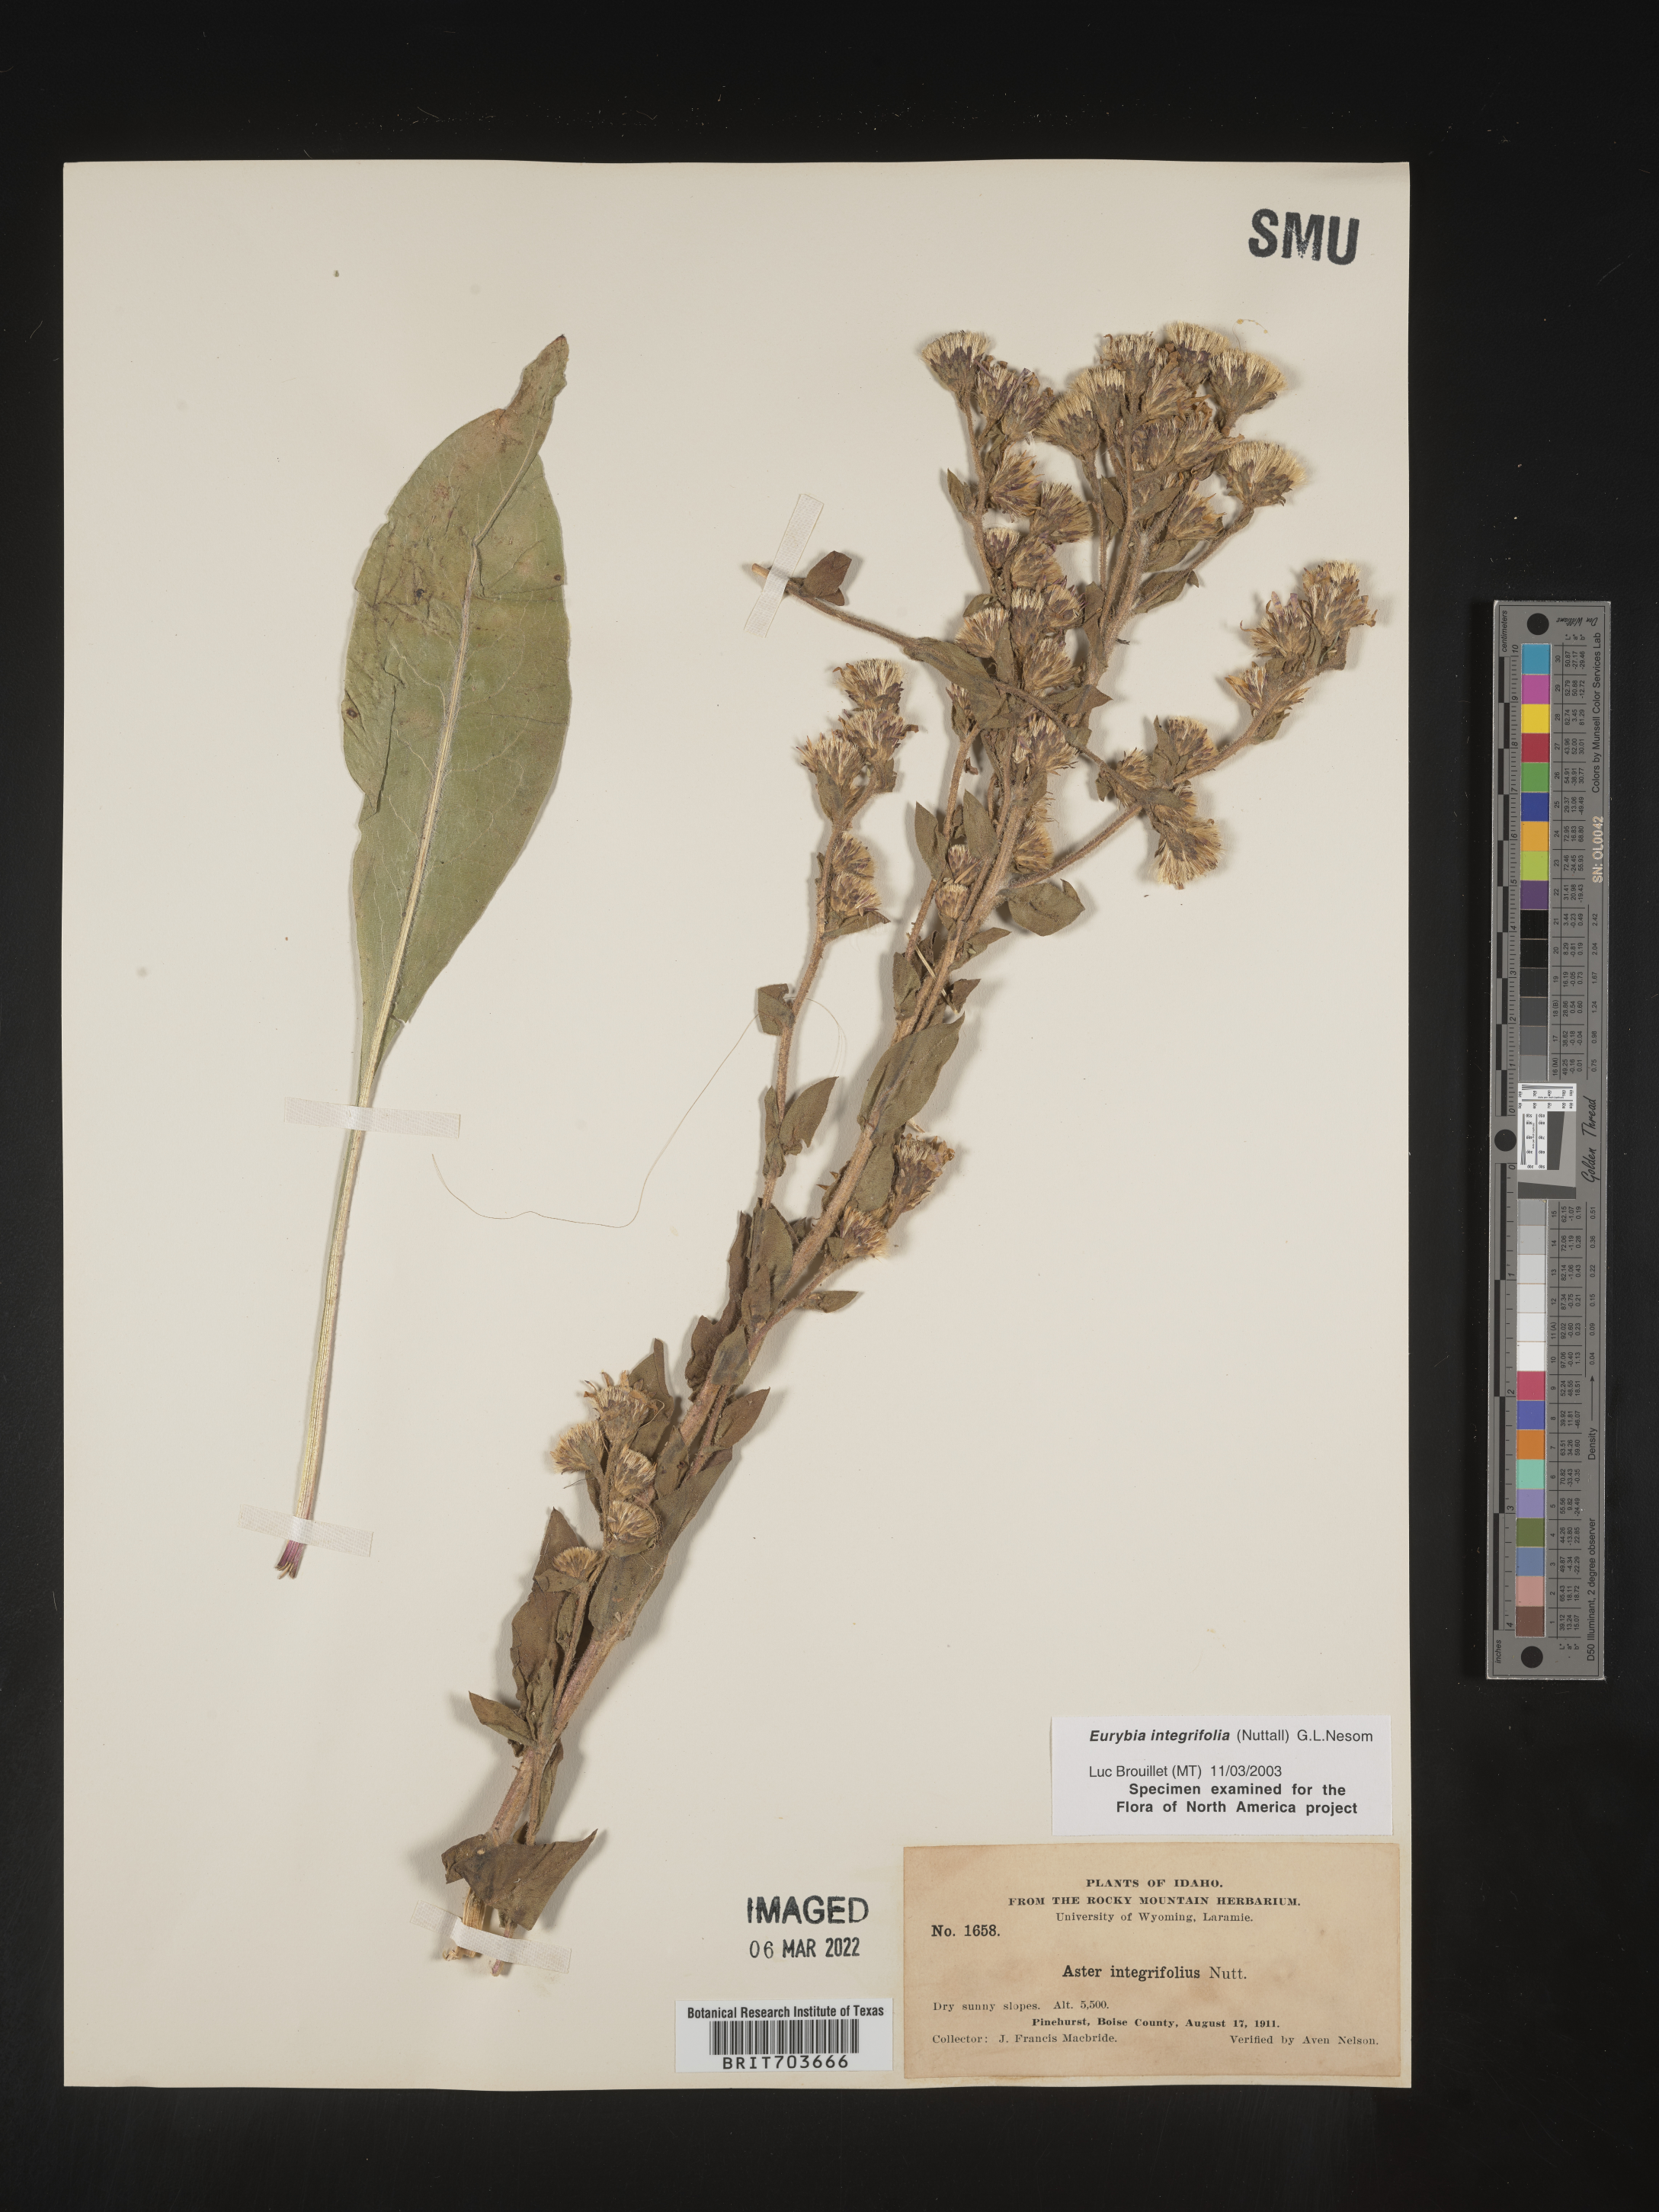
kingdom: Plantae
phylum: Tracheophyta
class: Magnoliopsida
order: Asterales
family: Asteraceae
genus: Eurybia
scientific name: Eurybia integrifolia
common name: Thick-stem aster
